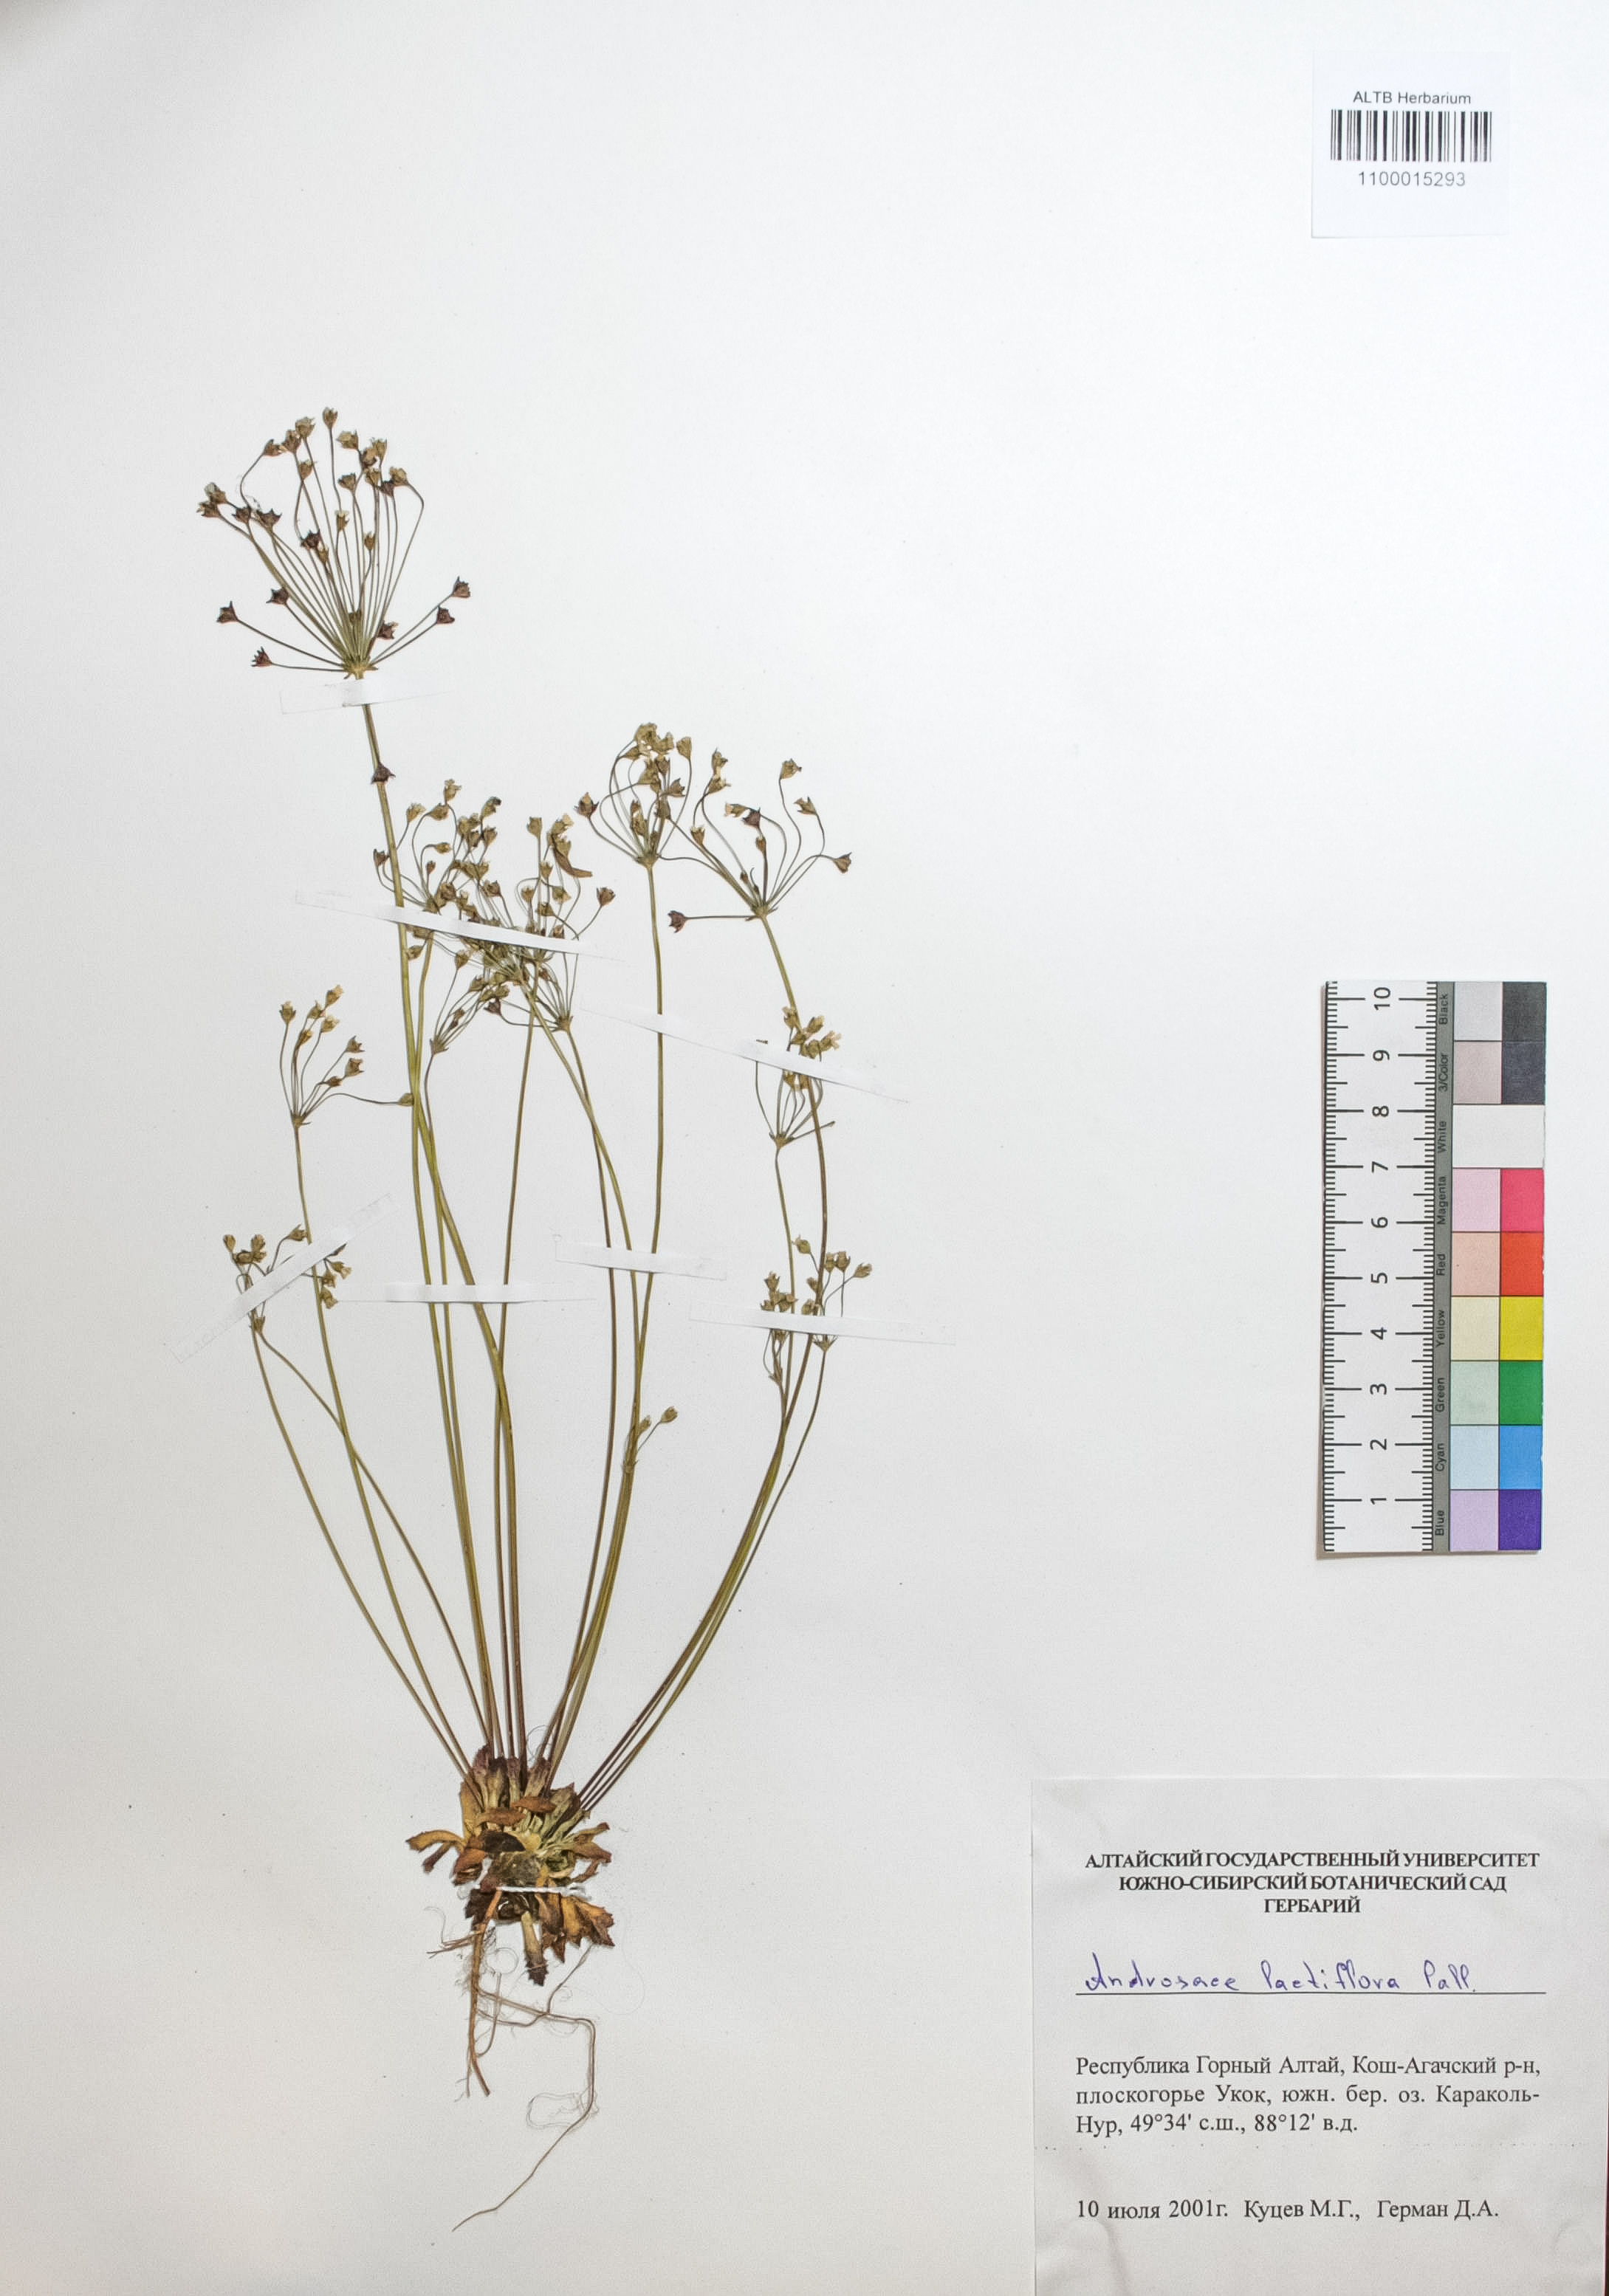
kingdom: Plantae
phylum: Tracheophyta
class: Magnoliopsida
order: Ericales
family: Primulaceae
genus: Androsace
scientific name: Androsace lactiflora
